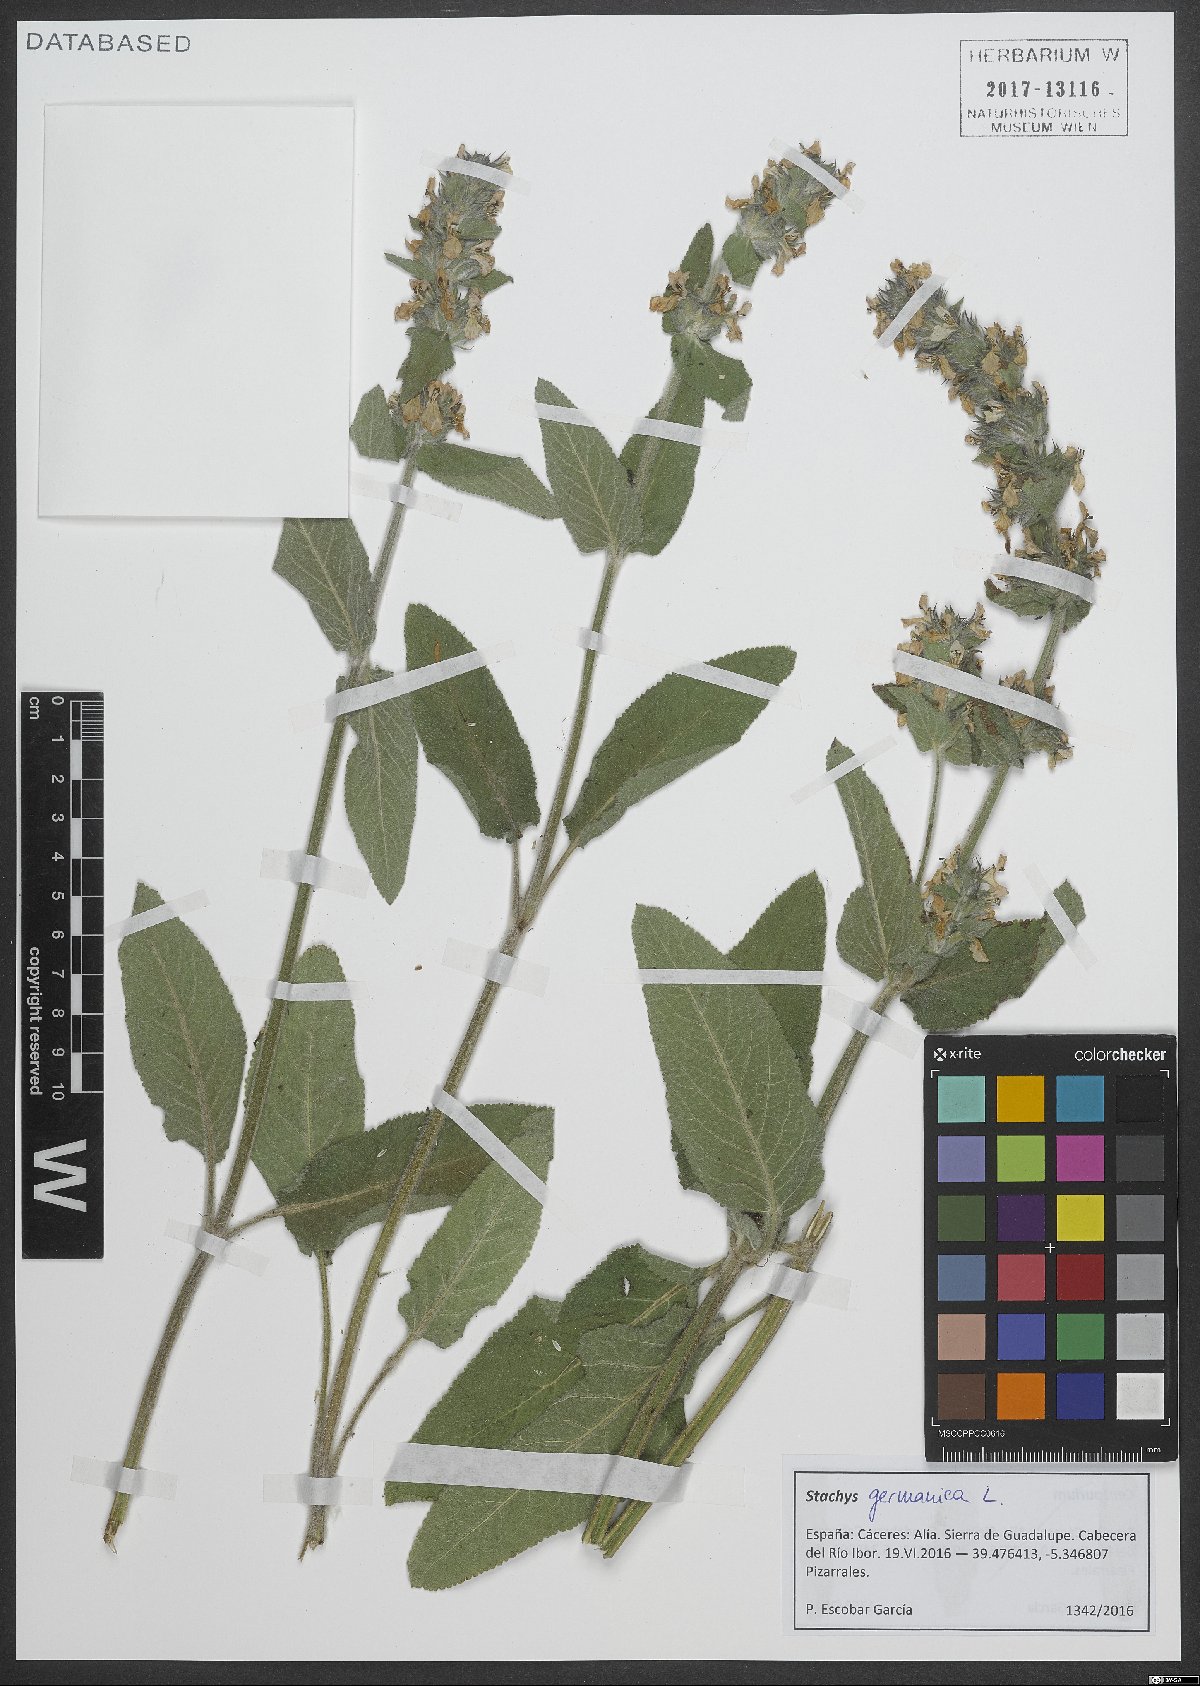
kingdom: Plantae
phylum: Tracheophyta
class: Magnoliopsida
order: Lamiales
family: Lamiaceae
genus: Stachys
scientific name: Stachys germanica
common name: Downy woundwort
